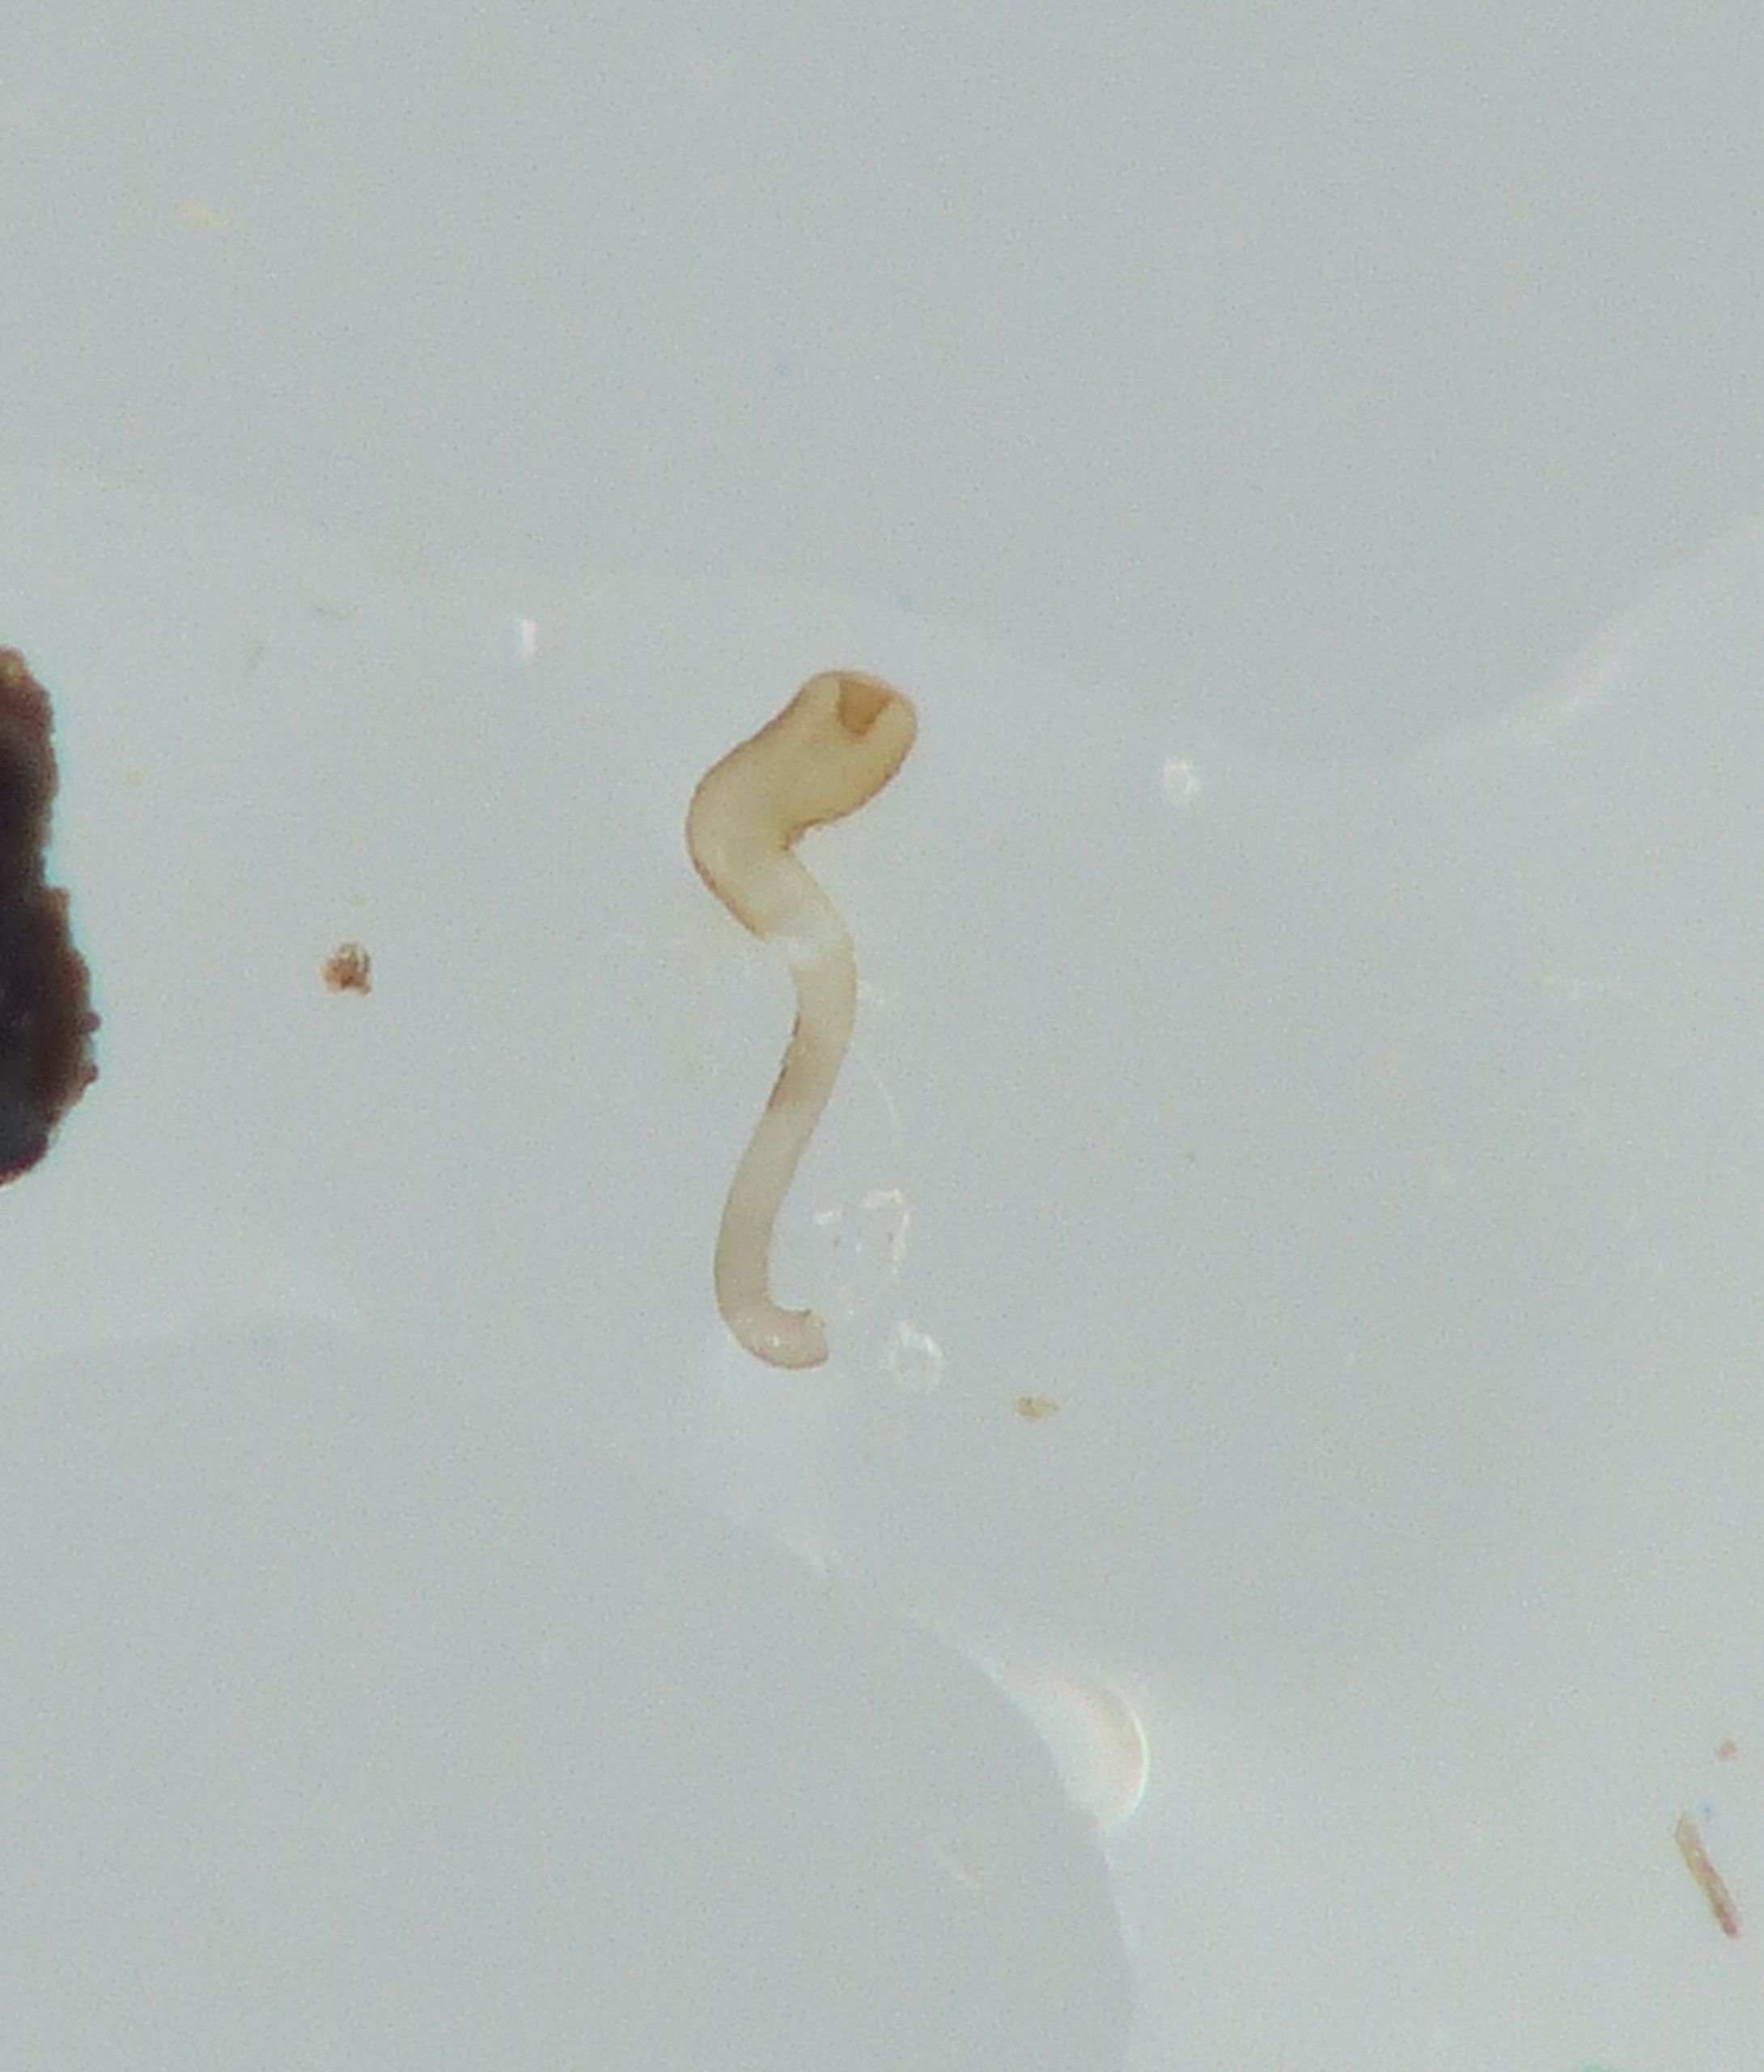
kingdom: Animalia
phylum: Arthropoda
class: Insecta
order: Coleoptera
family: Staphylinidae
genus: Amischa
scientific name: Amischa analis
